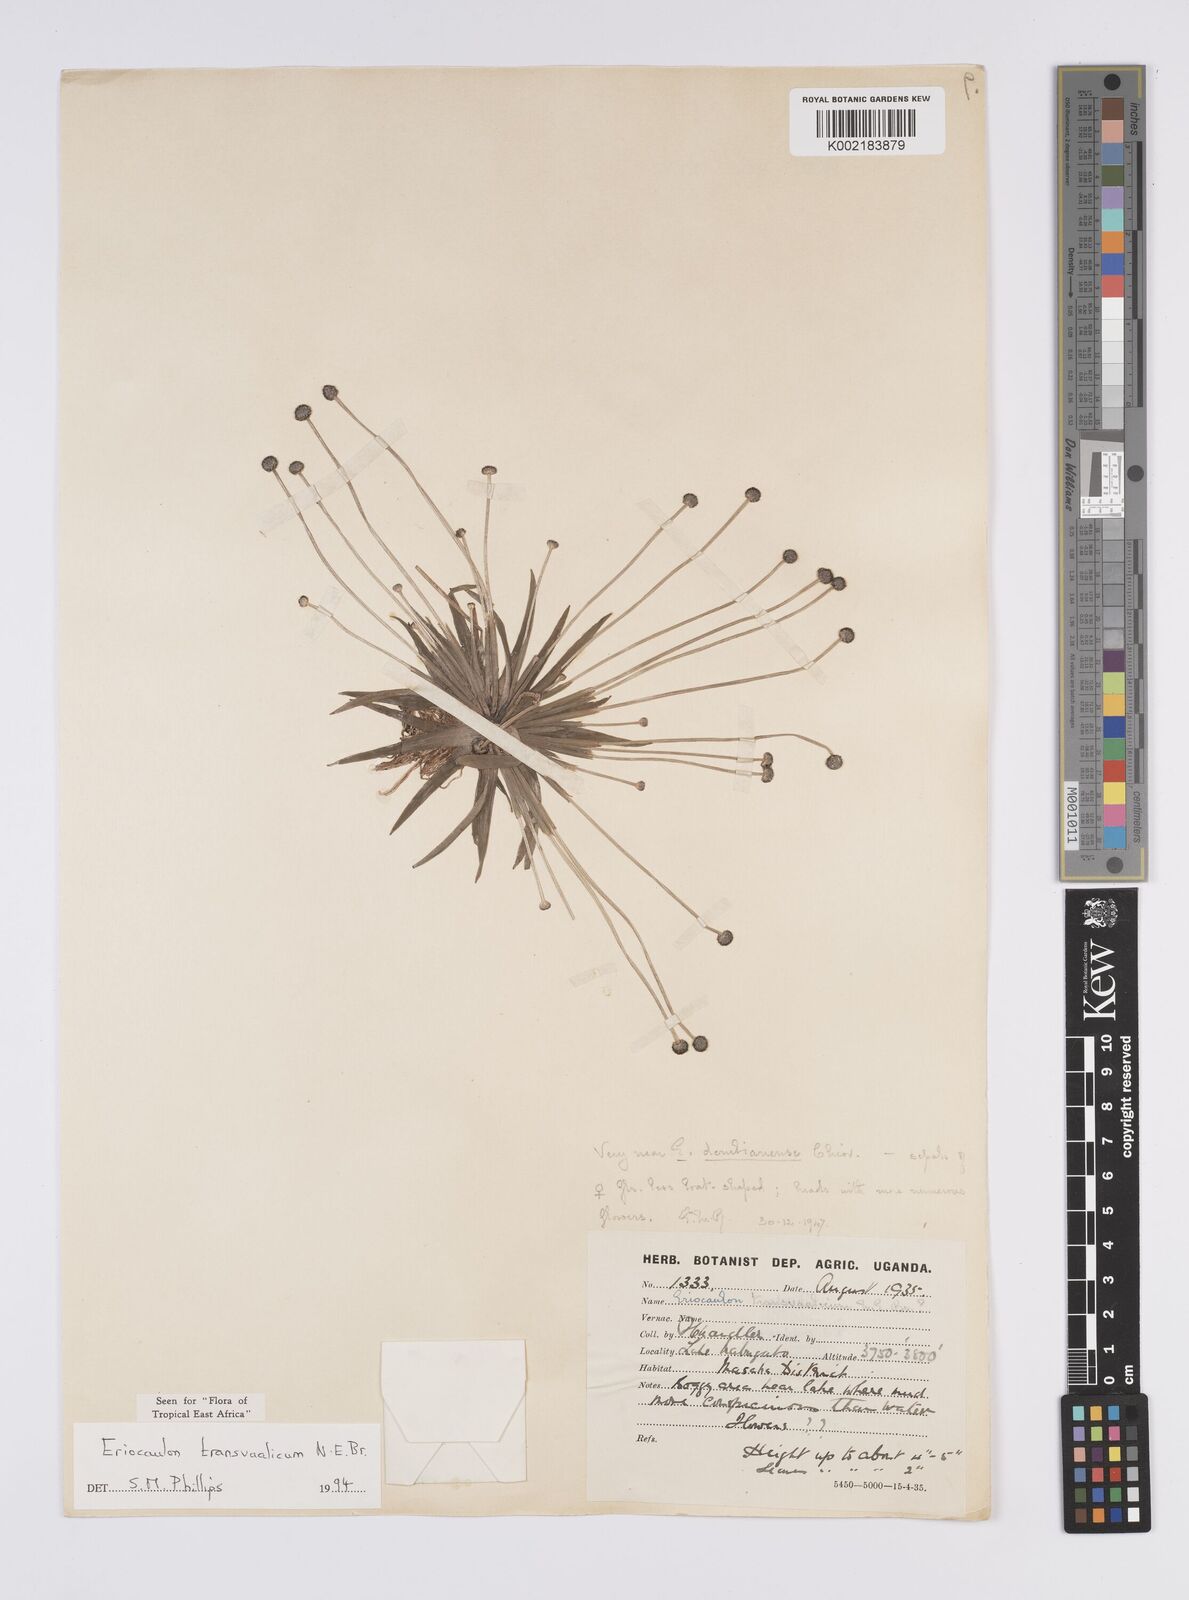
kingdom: Plantae
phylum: Tracheophyta
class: Liliopsida
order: Poales
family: Eriocaulaceae
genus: Eriocaulon
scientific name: Eriocaulon transvaalicum
